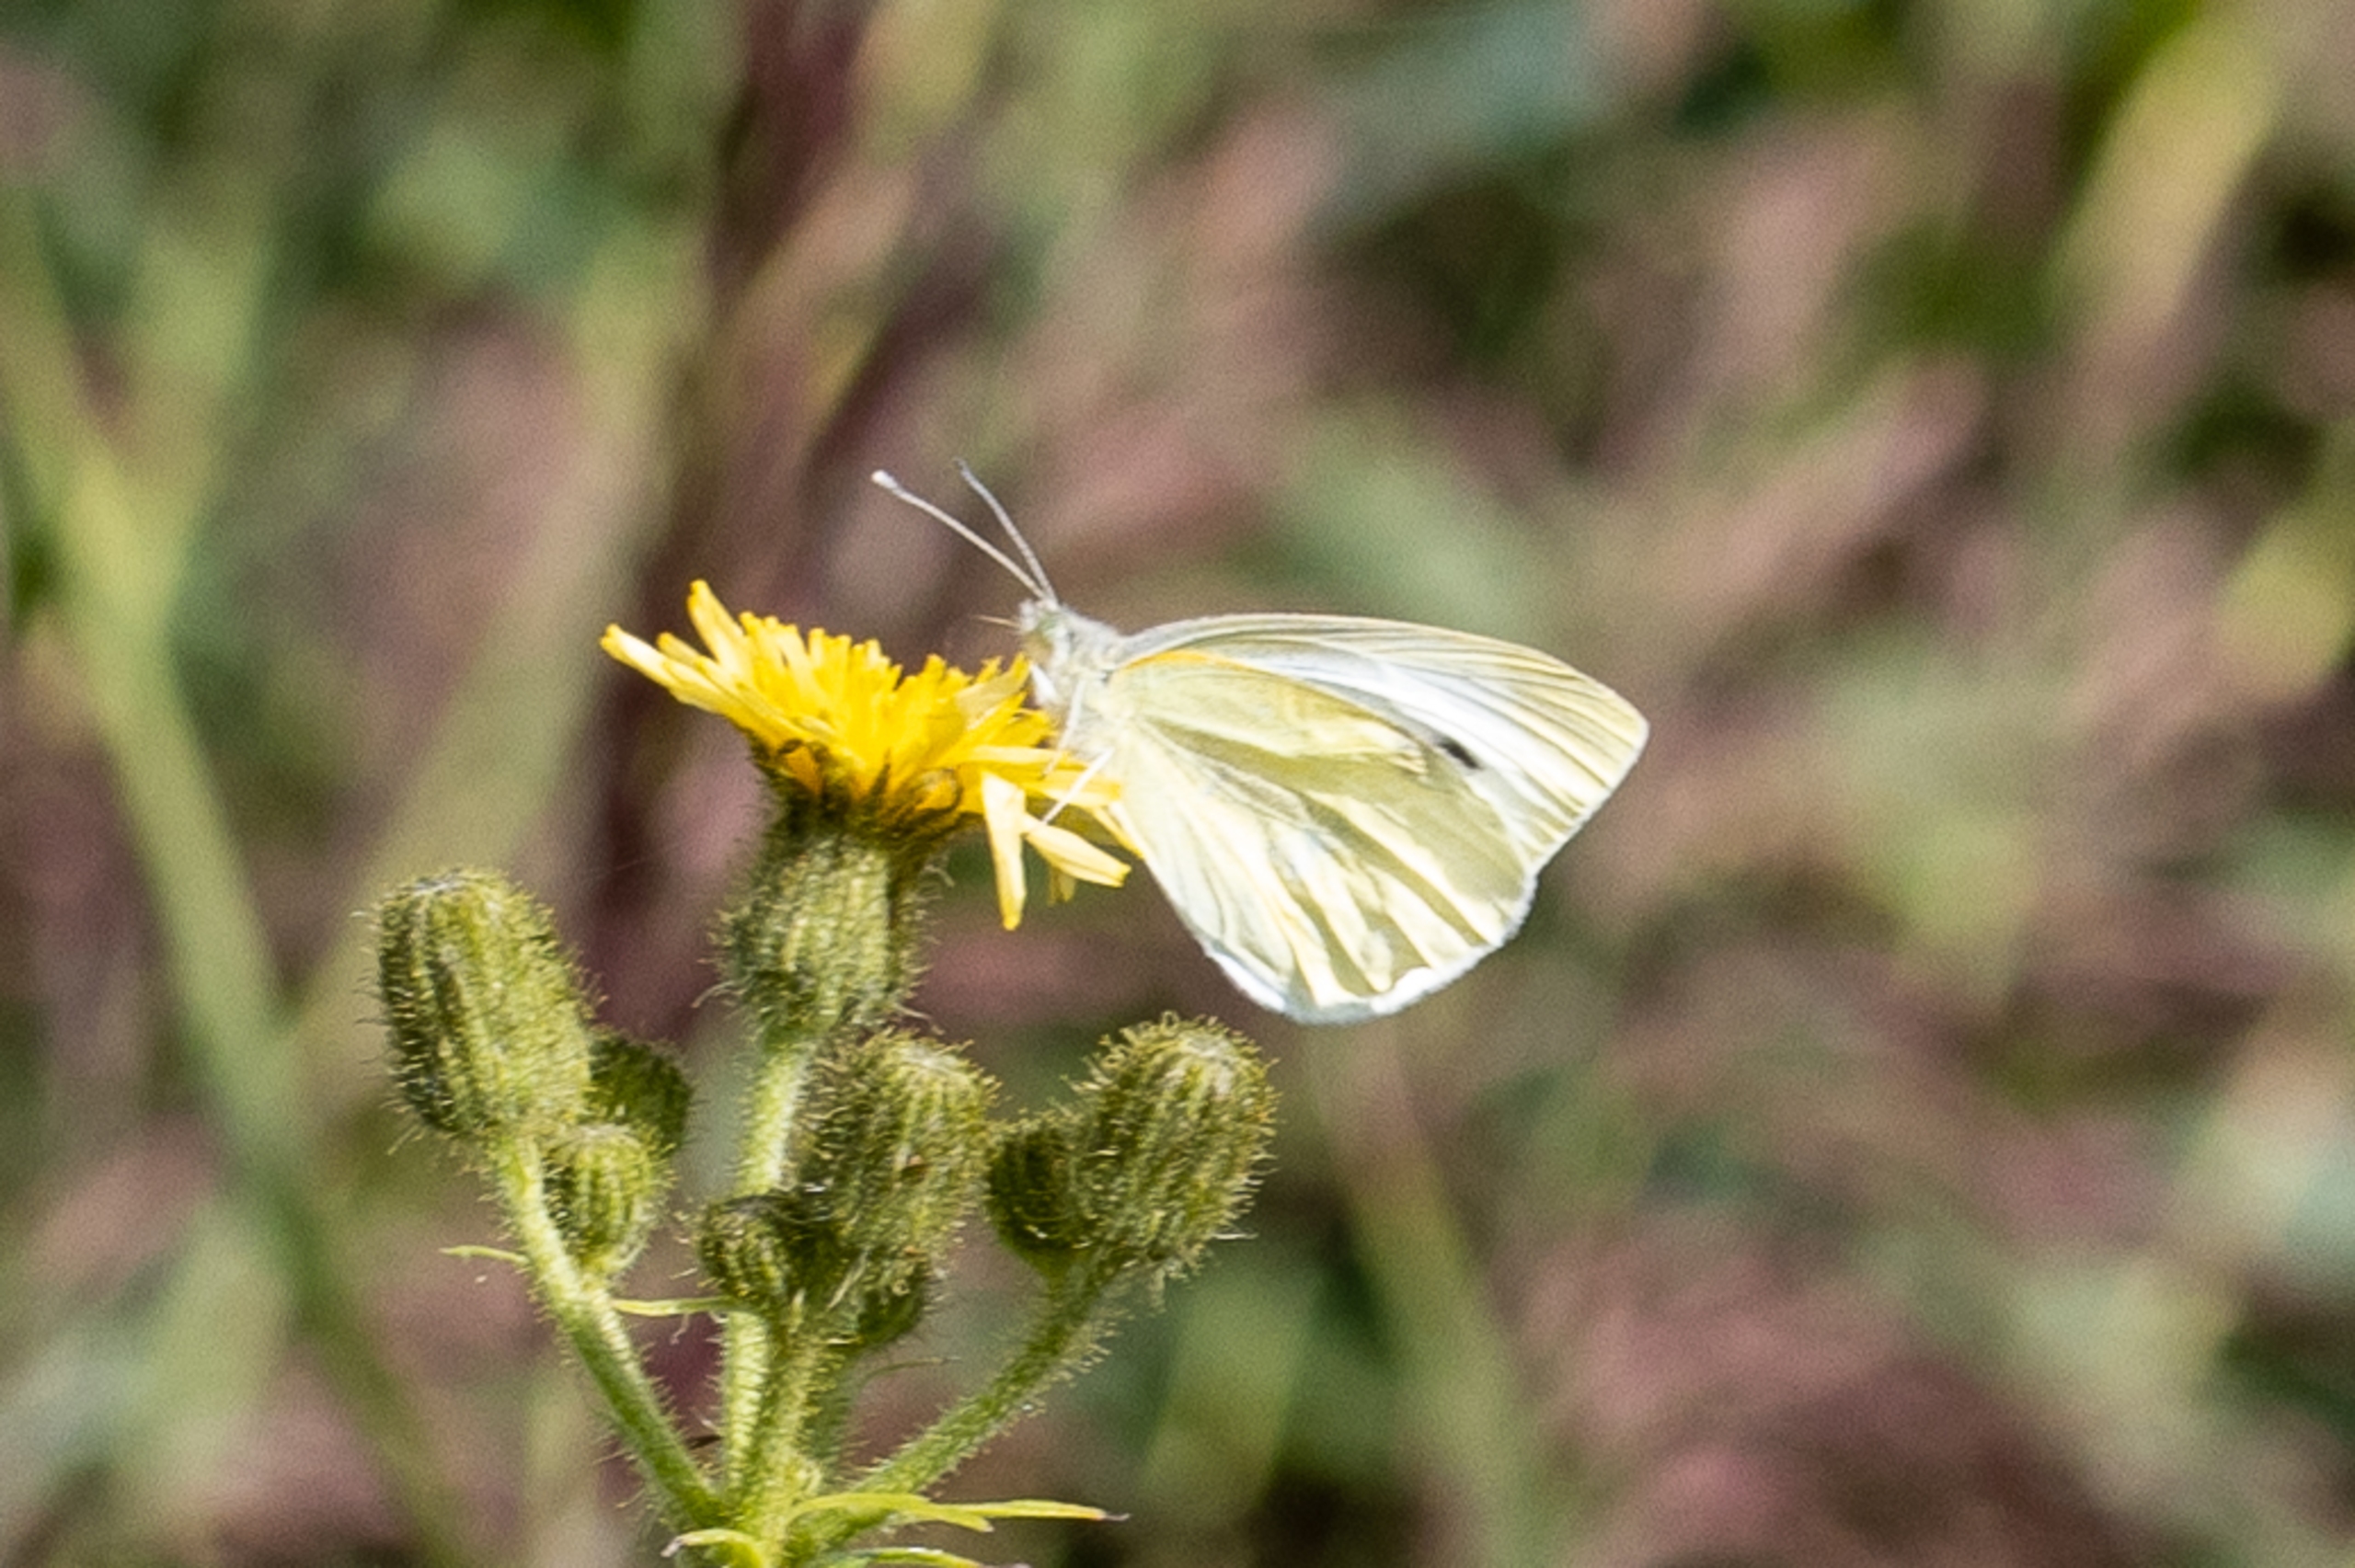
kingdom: Animalia
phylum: Arthropoda
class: Insecta
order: Lepidoptera
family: Pieridae
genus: Pieris
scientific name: Pieris brassicae
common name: Stor kålsommerfugl
